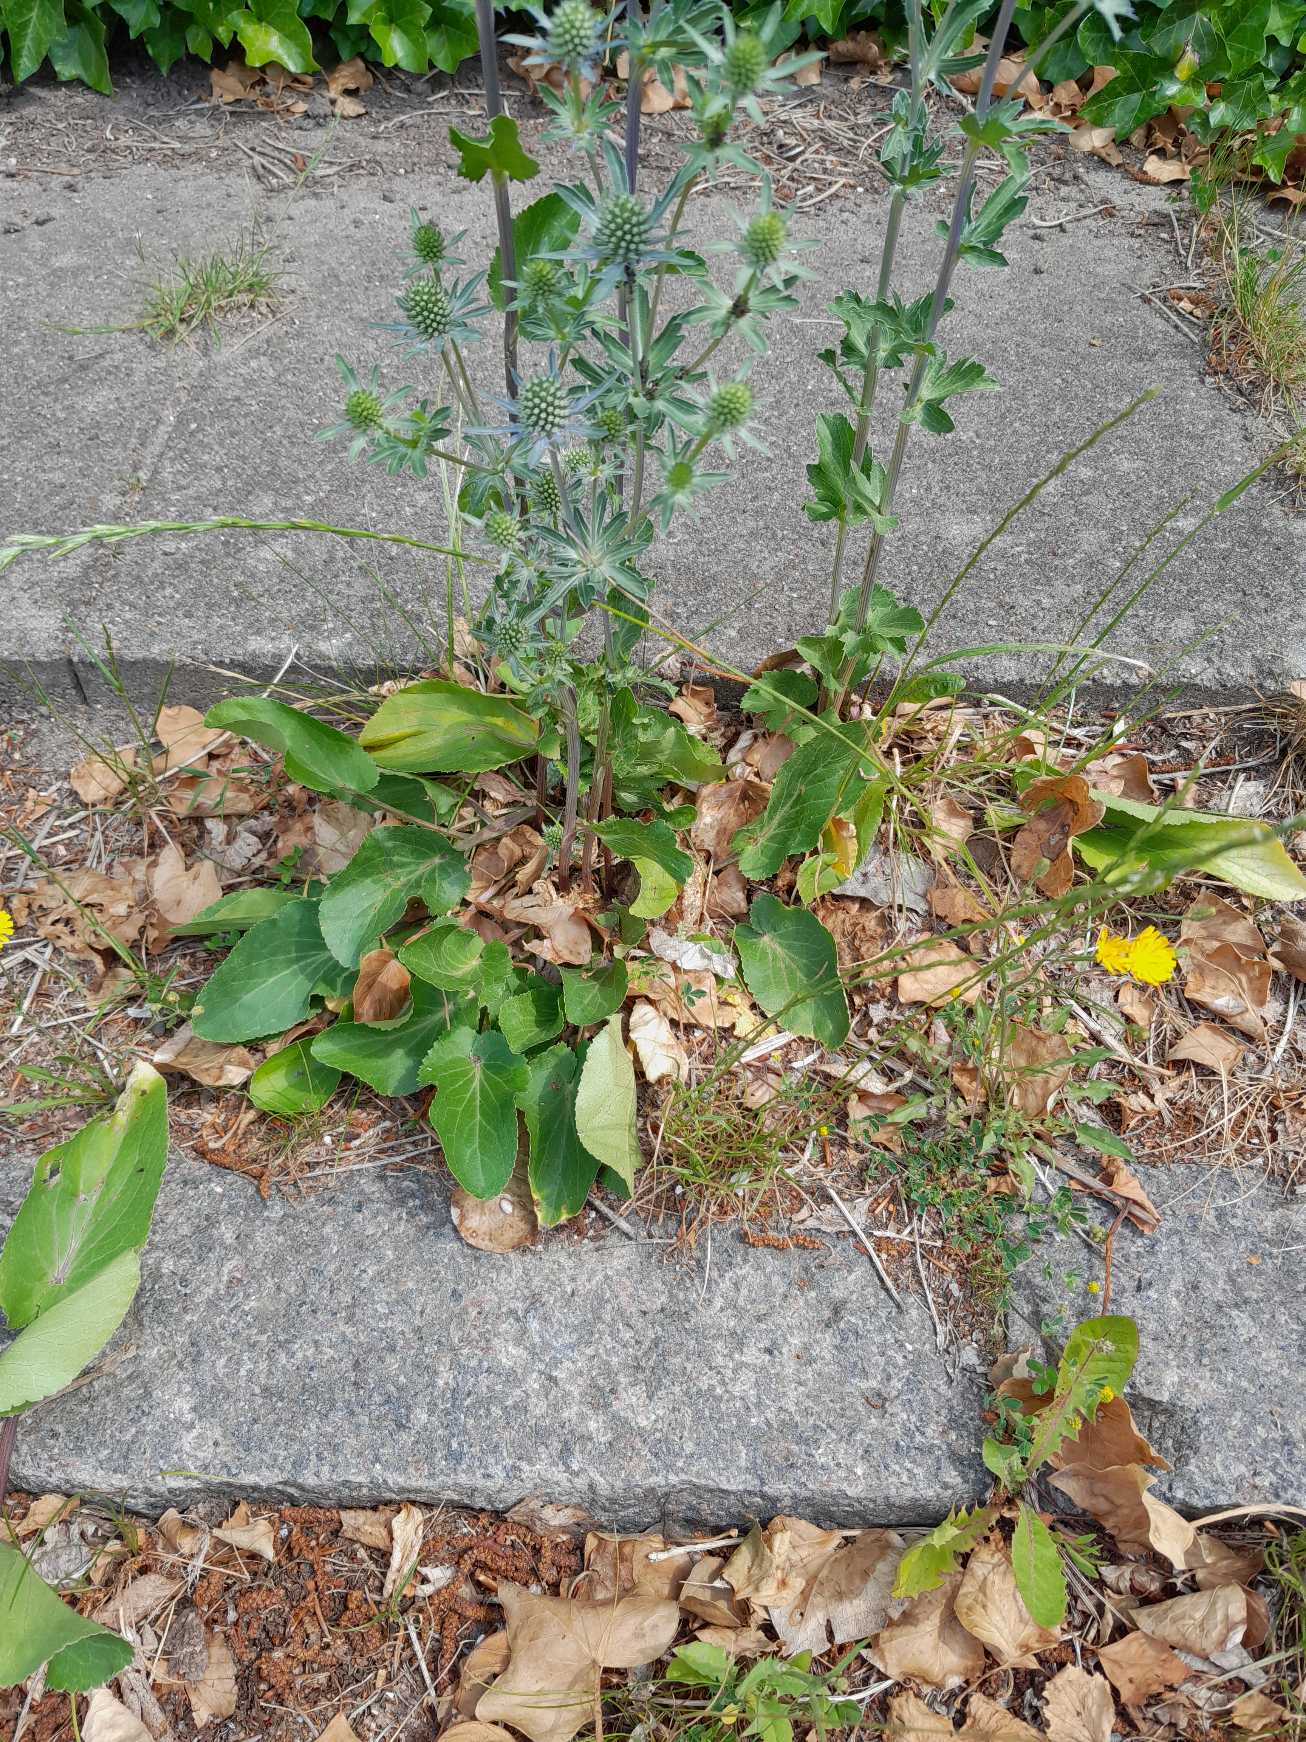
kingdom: Plantae
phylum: Tracheophyta
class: Magnoliopsida
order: Apiales
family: Apiaceae
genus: Eryngium
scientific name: Eryngium planum
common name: Russisk mandstro
